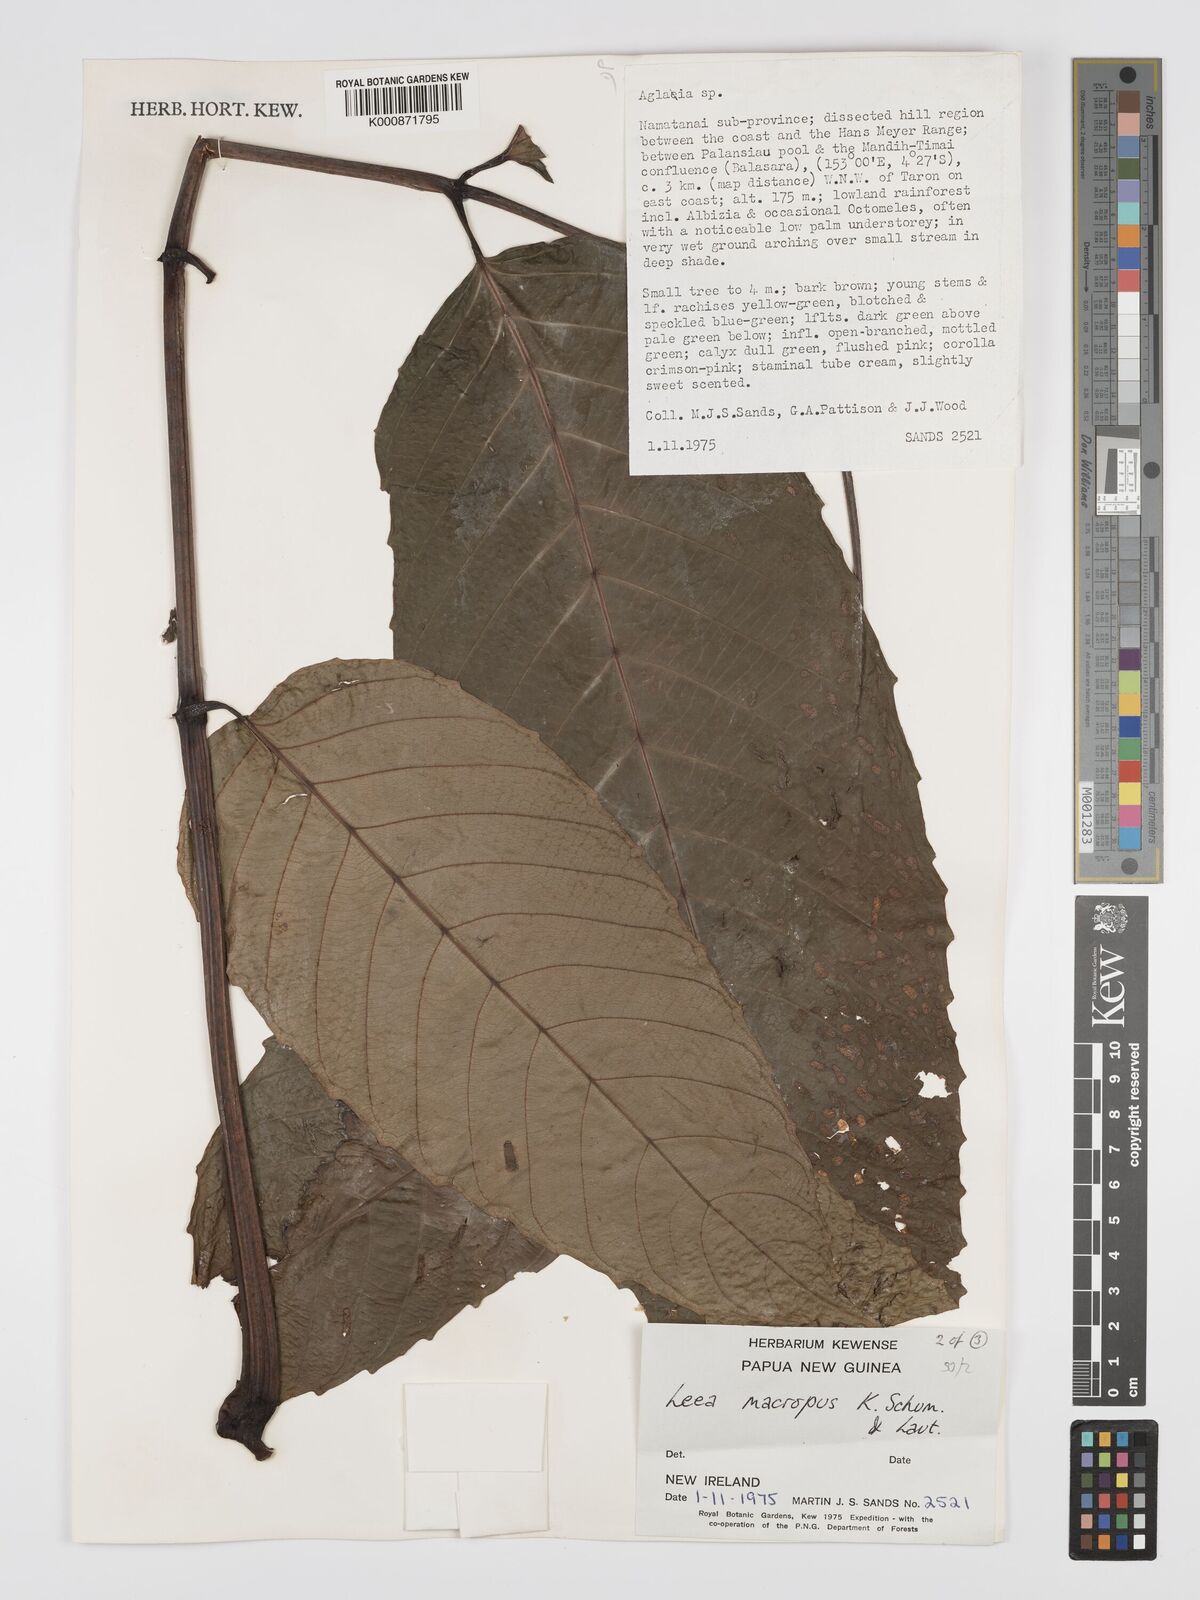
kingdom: Plantae
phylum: Tracheophyta
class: Magnoliopsida
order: Vitales
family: Vitaceae
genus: Leea
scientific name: Leea macropus
